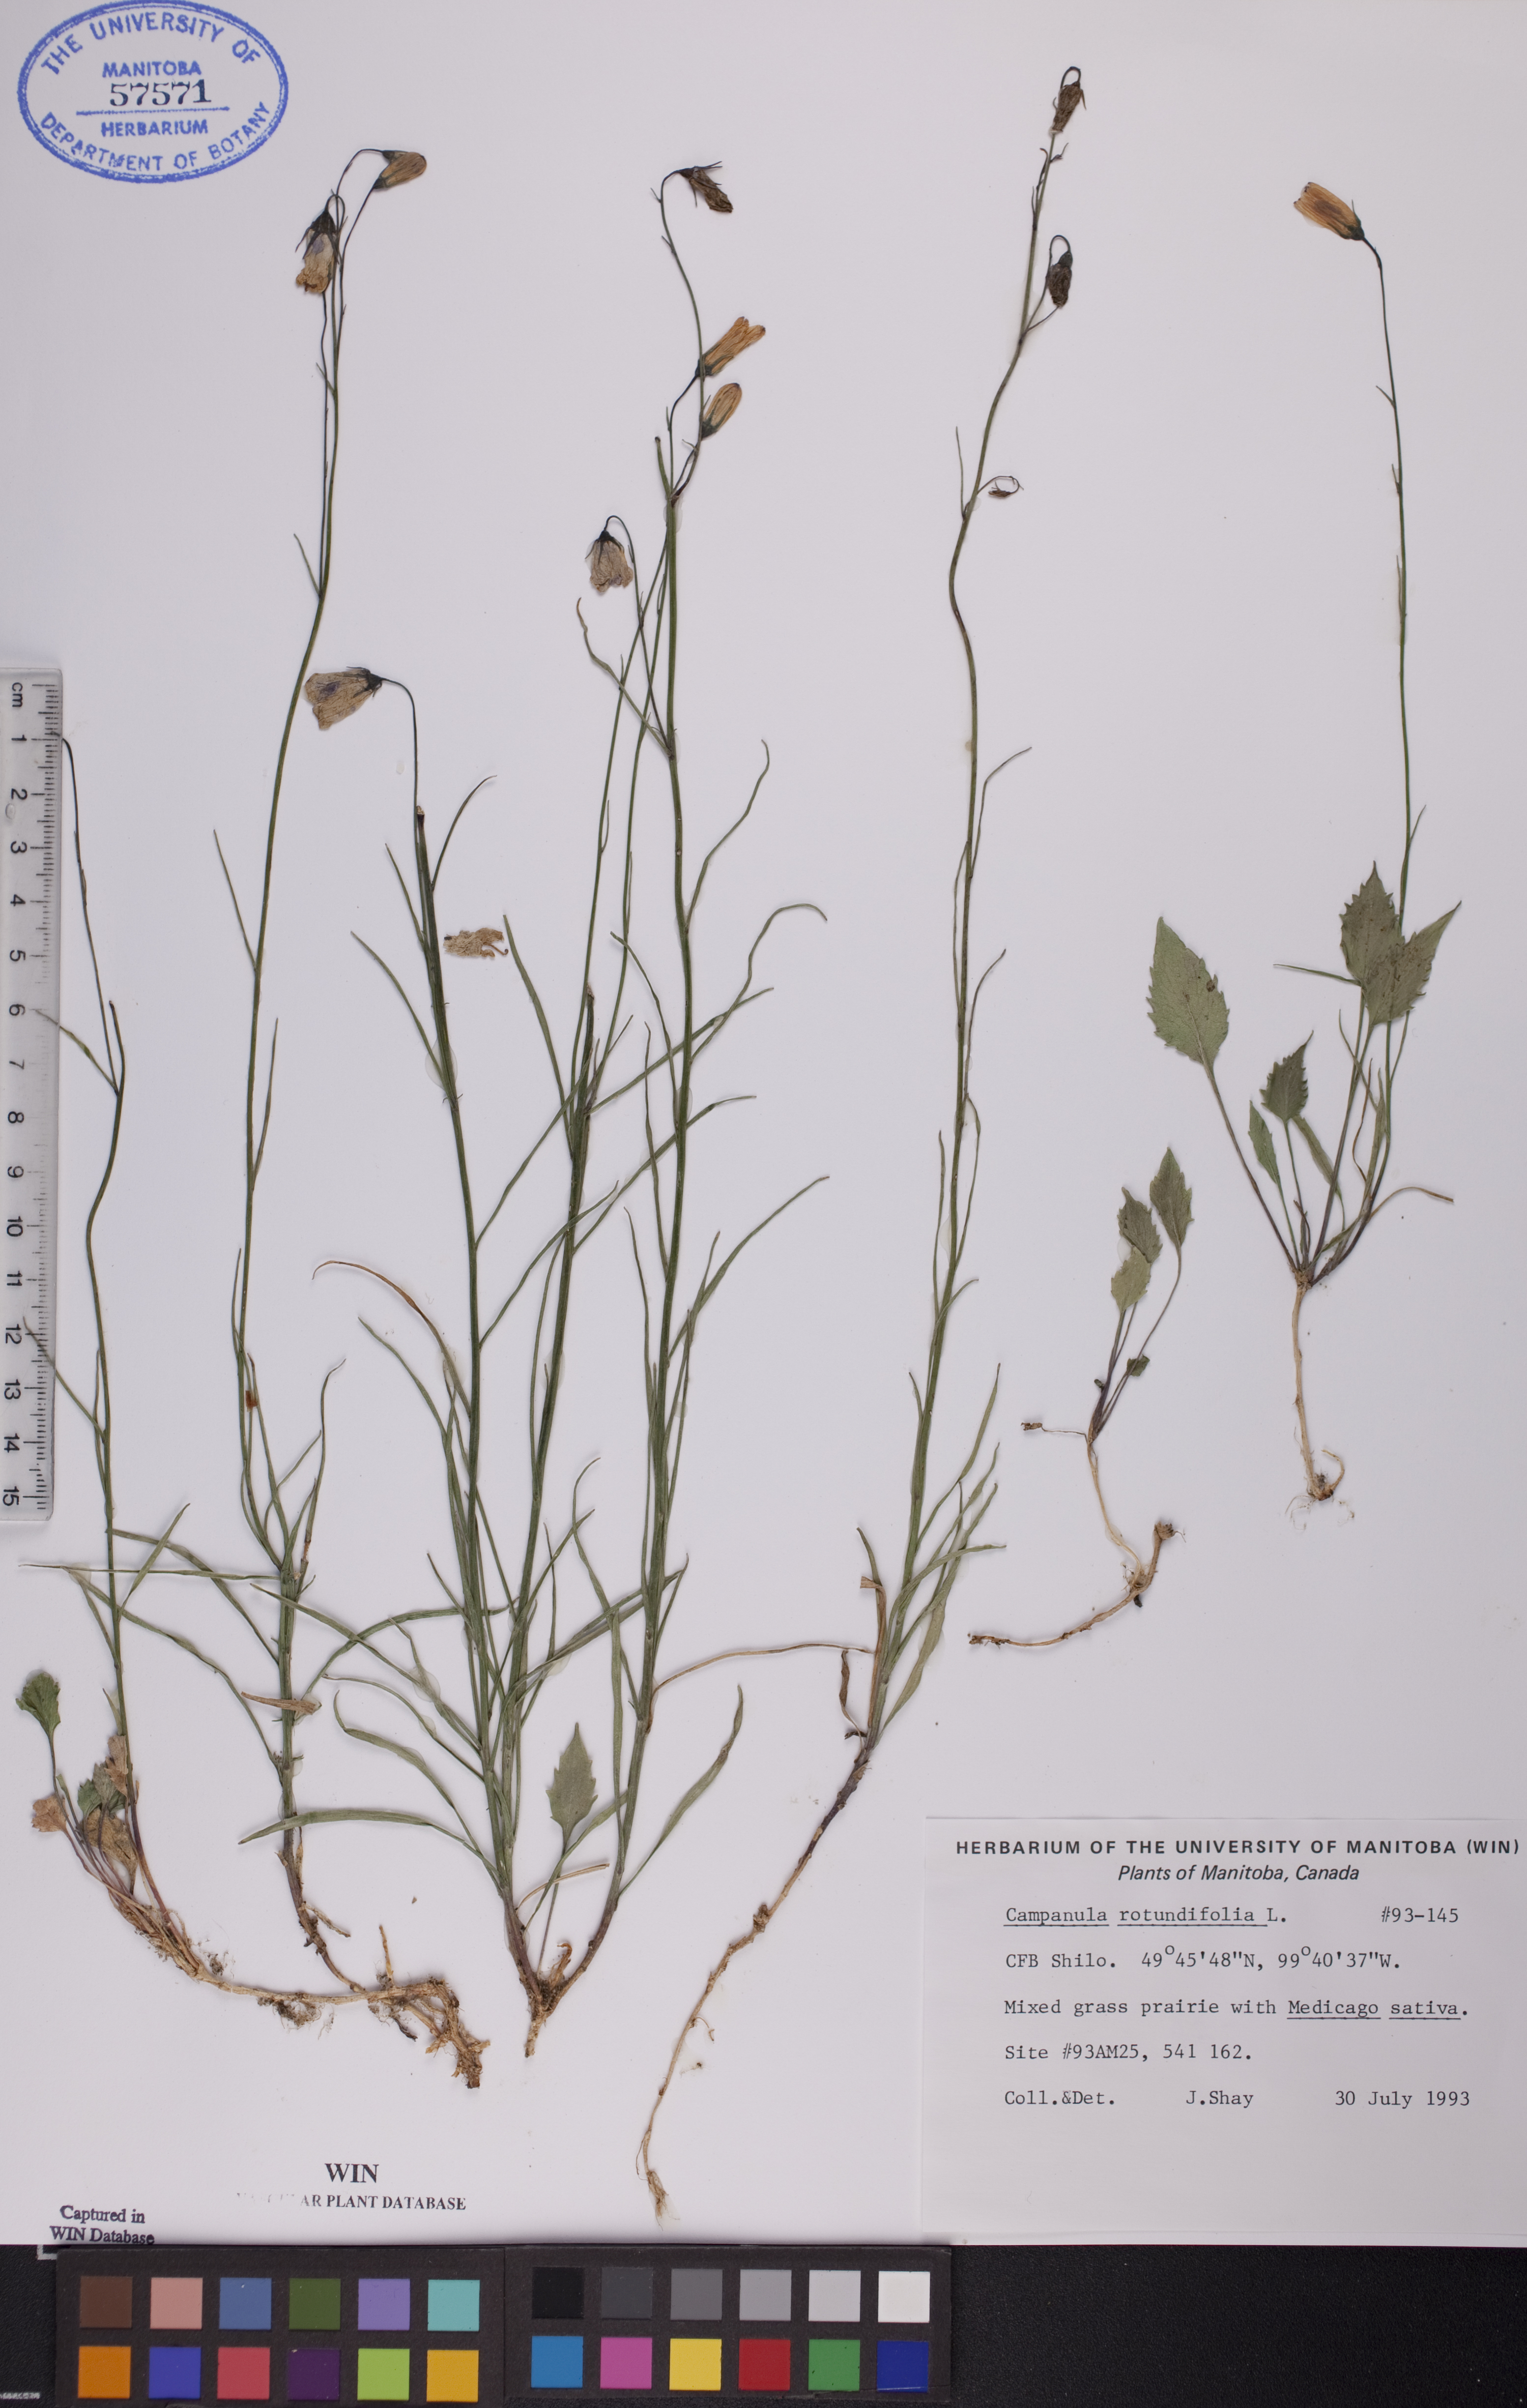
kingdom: Plantae
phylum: Tracheophyta
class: Magnoliopsida
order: Asterales
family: Campanulaceae
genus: Campanula
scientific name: Campanula rotundifolia
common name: Harebell
